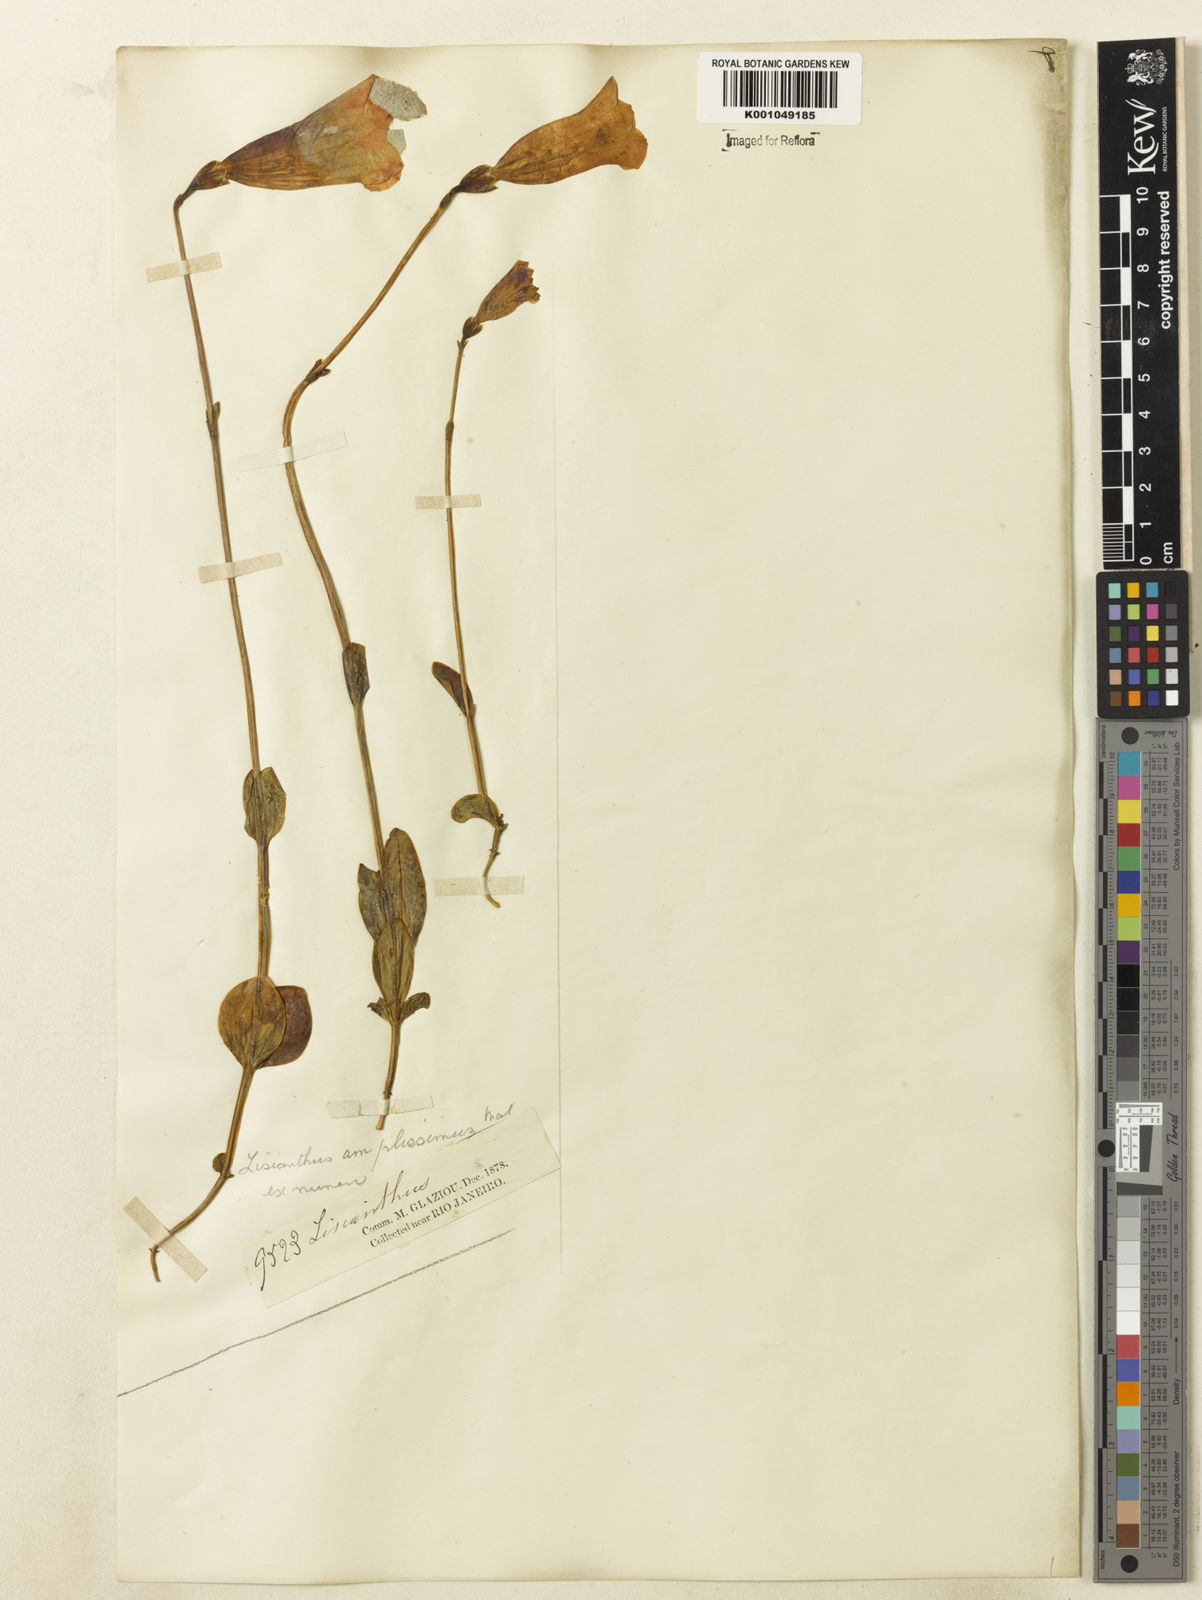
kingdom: Plantae
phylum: Tracheophyta
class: Magnoliopsida
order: Gentianales
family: Gentianaceae
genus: Calolisianthus
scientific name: Calolisianthus amplissimus
